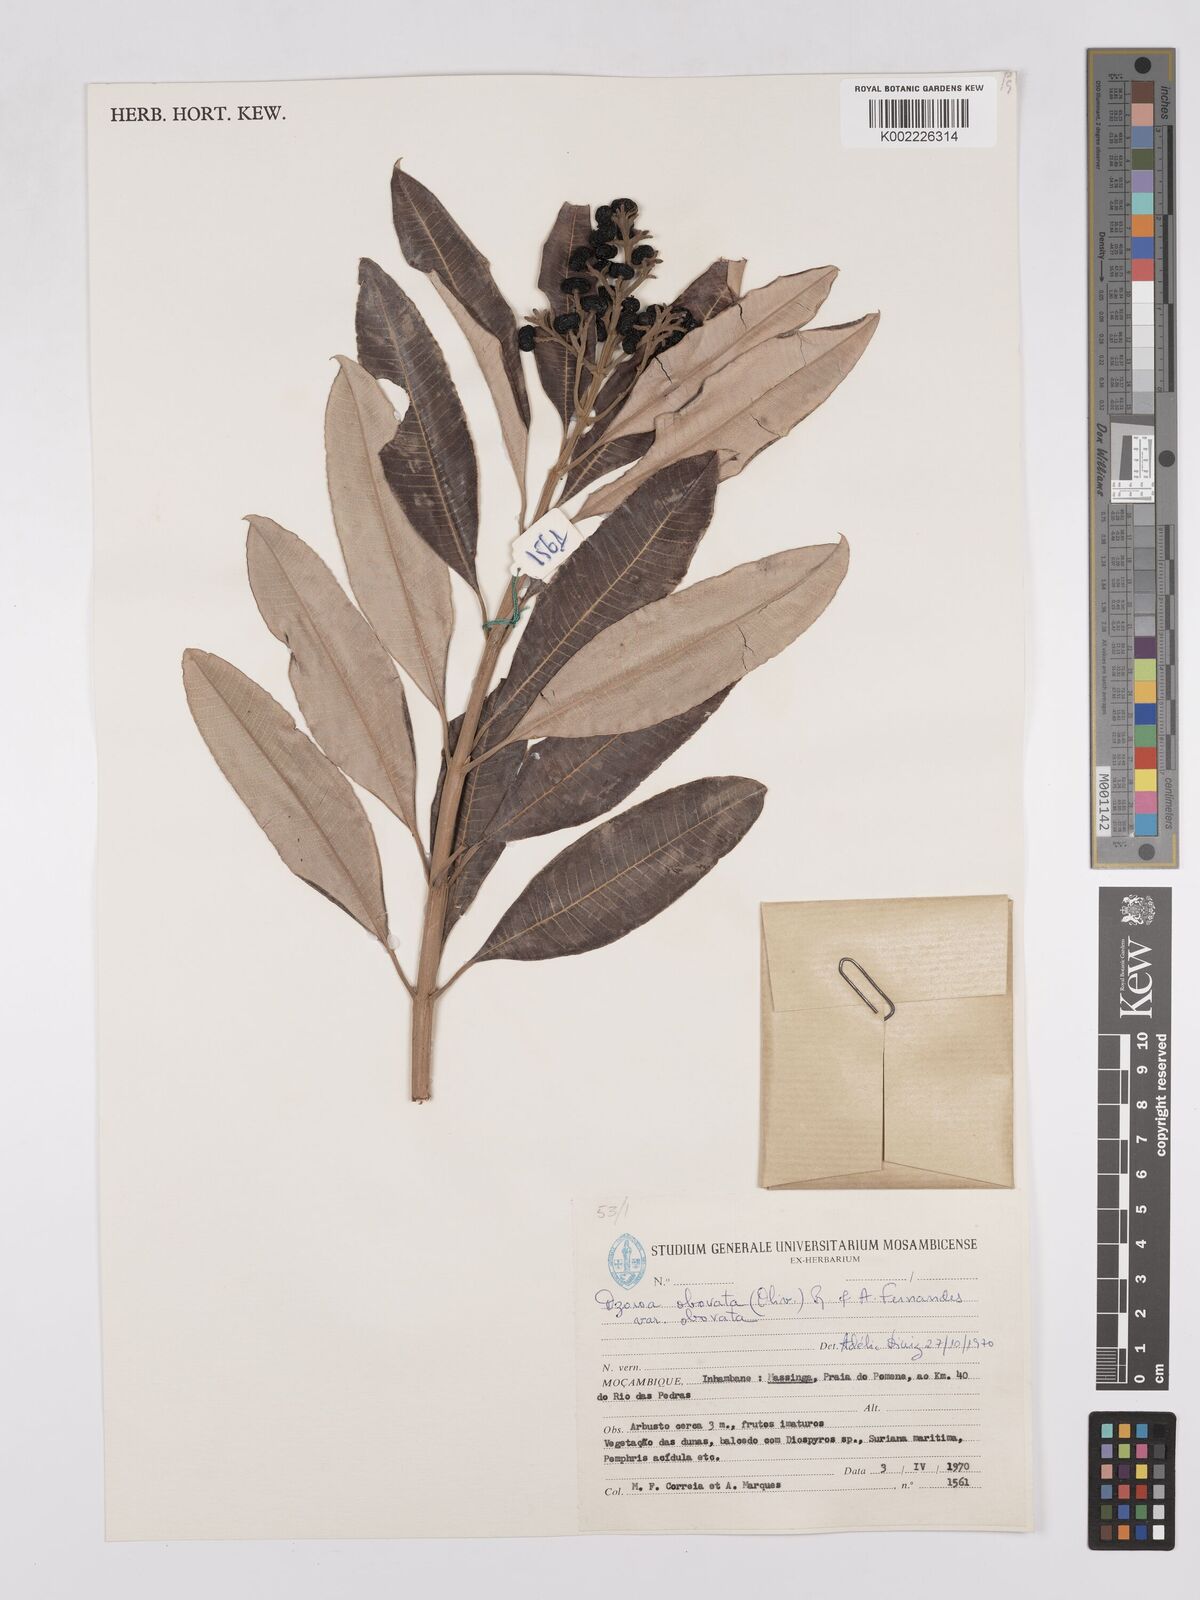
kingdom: Plantae
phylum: Tracheophyta
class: Magnoliopsida
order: Sapindales
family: Anacardiaceae
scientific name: Anacardiaceae
